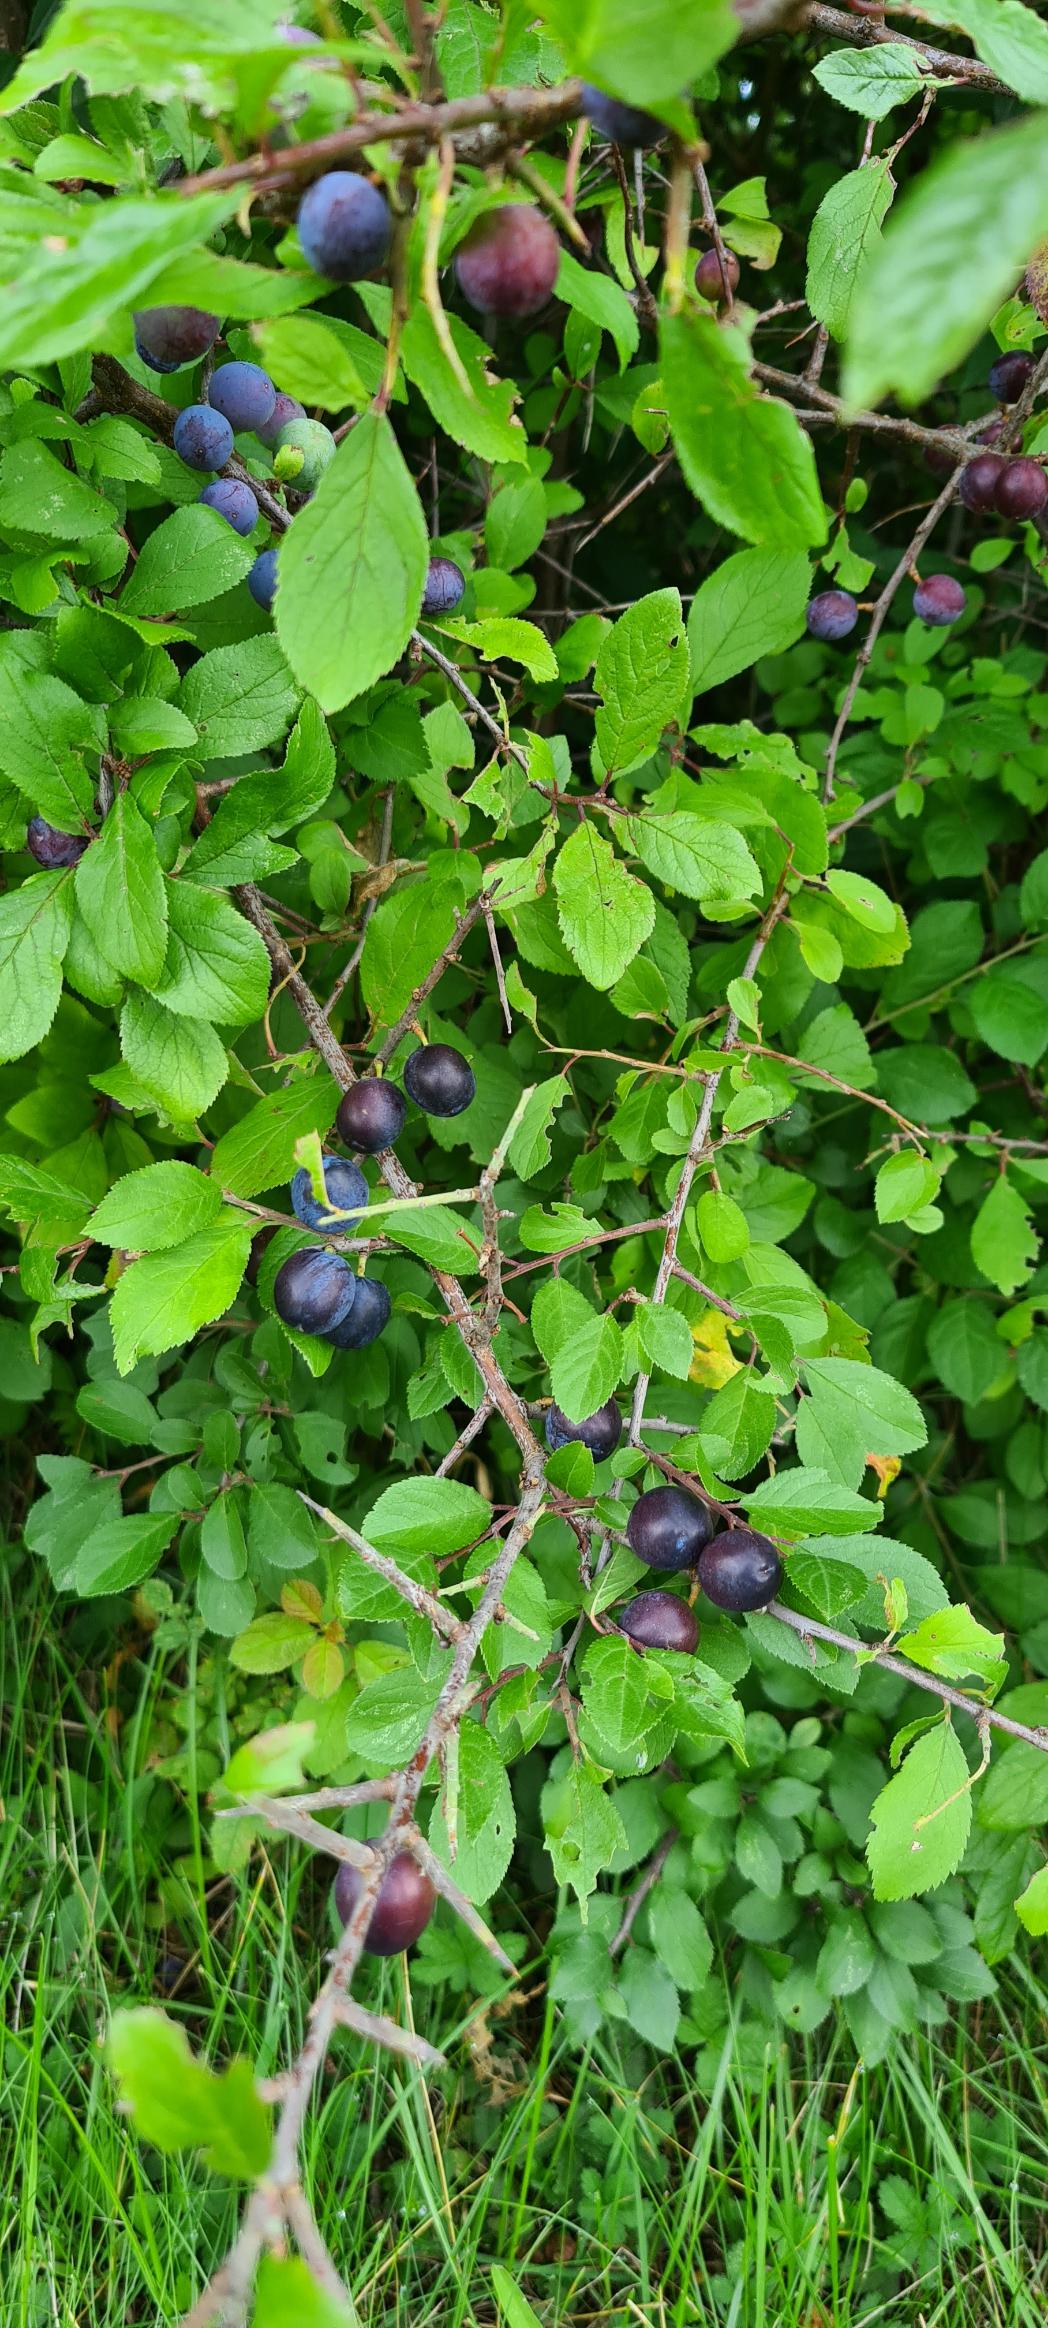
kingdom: Plantae
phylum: Tracheophyta
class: Magnoliopsida
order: Rosales
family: Rosaceae
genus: Prunus
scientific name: Prunus spinosa
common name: Slåen
